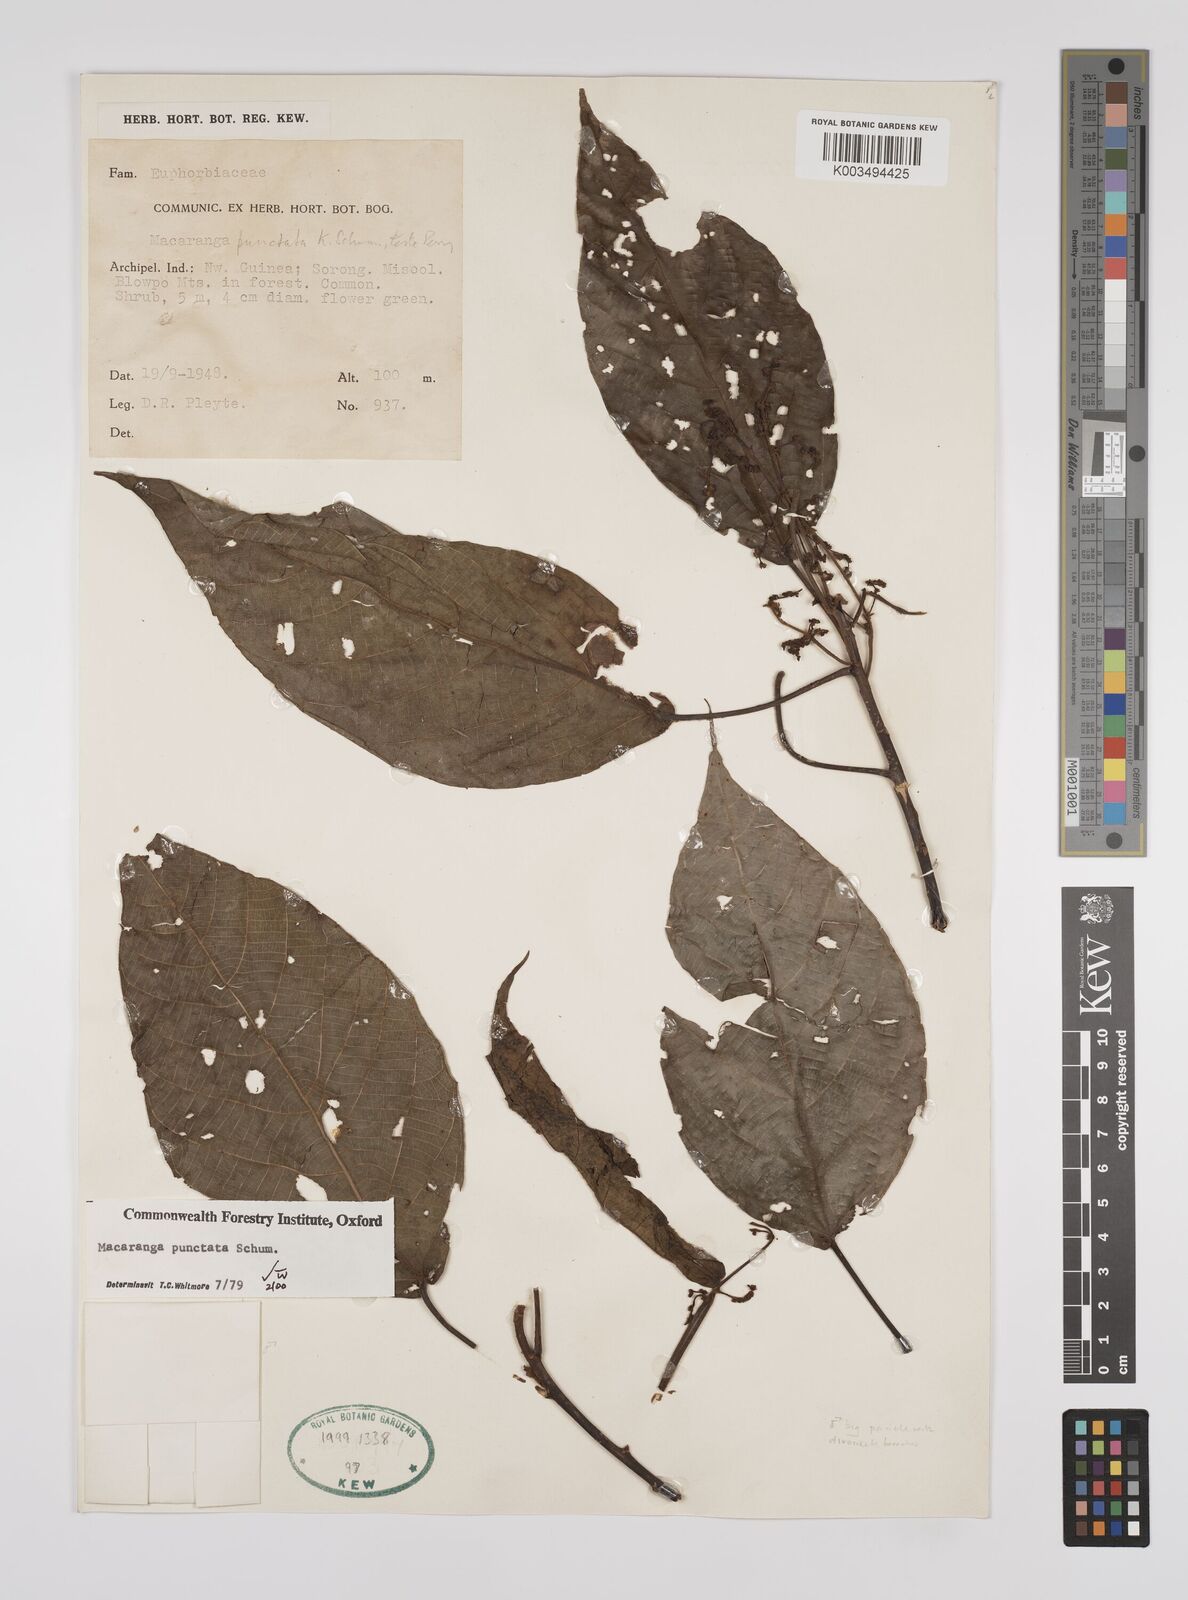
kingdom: Plantae
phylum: Tracheophyta
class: Magnoliopsida
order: Malpighiales
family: Euphorbiaceae
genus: Macaranga
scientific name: Macaranga punctata
